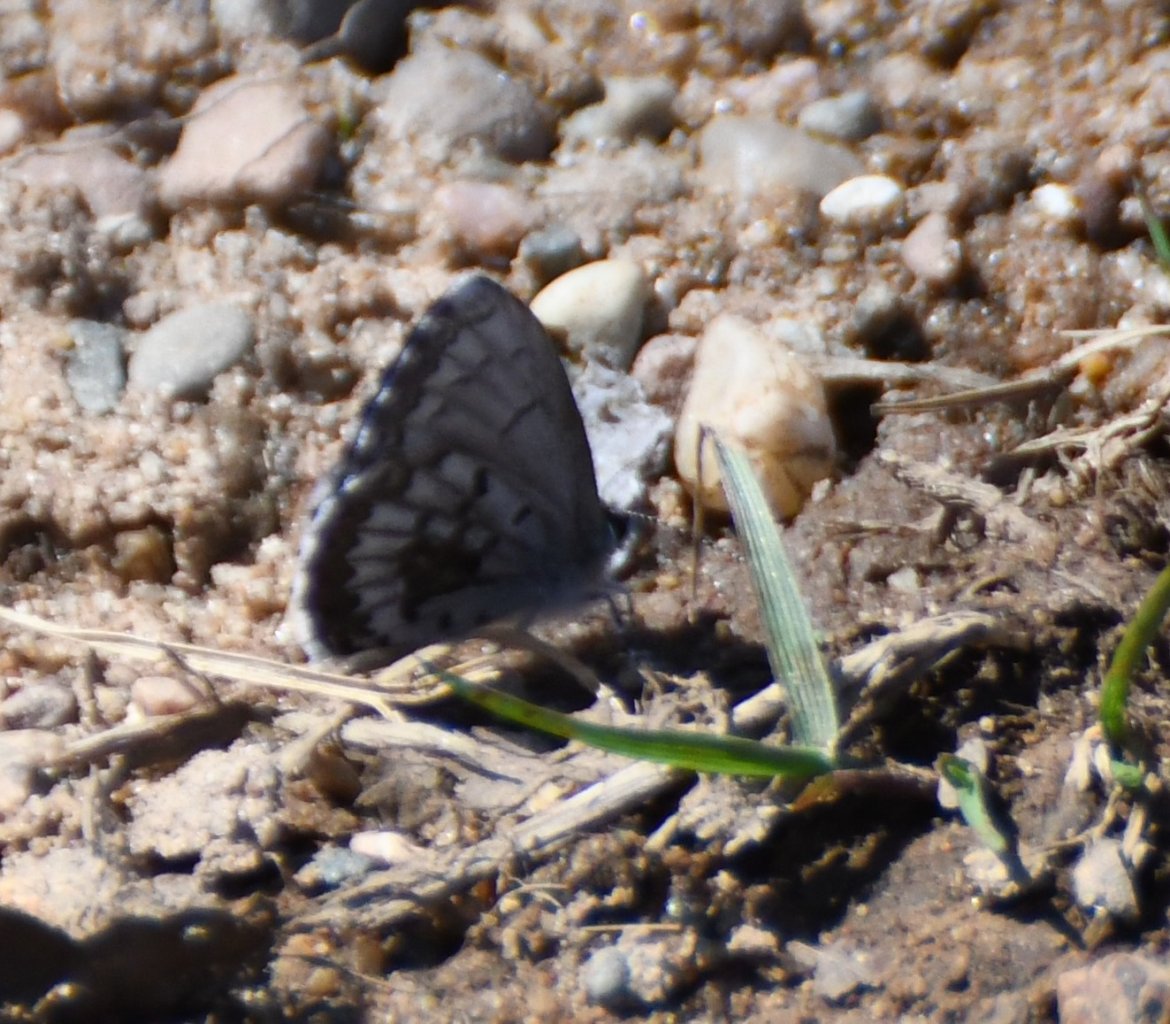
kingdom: Animalia
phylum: Arthropoda
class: Insecta
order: Lepidoptera
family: Lycaenidae
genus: Celastrina
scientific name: Celastrina lucia
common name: Northern Spring Azure
